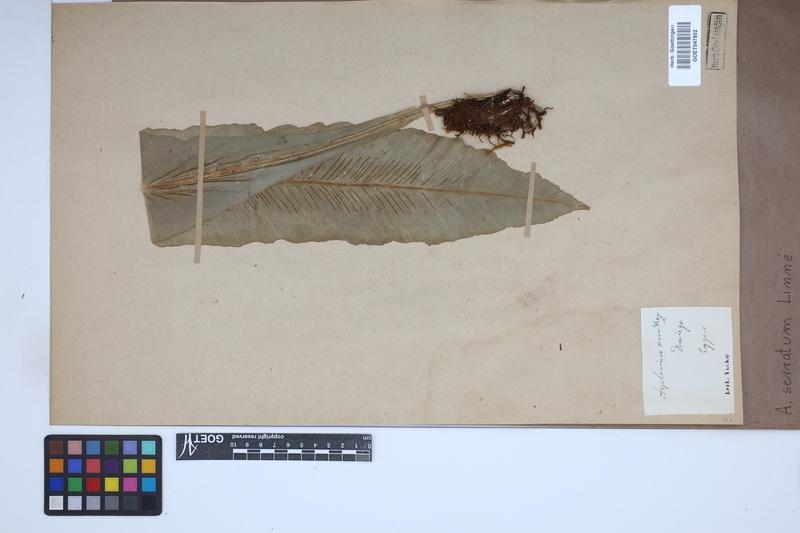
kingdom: Plantae
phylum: Tracheophyta
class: Polypodiopsida
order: Polypodiales
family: Aspleniaceae
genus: Asplenium
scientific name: Asplenium serratum
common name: Wild birdnest fern
